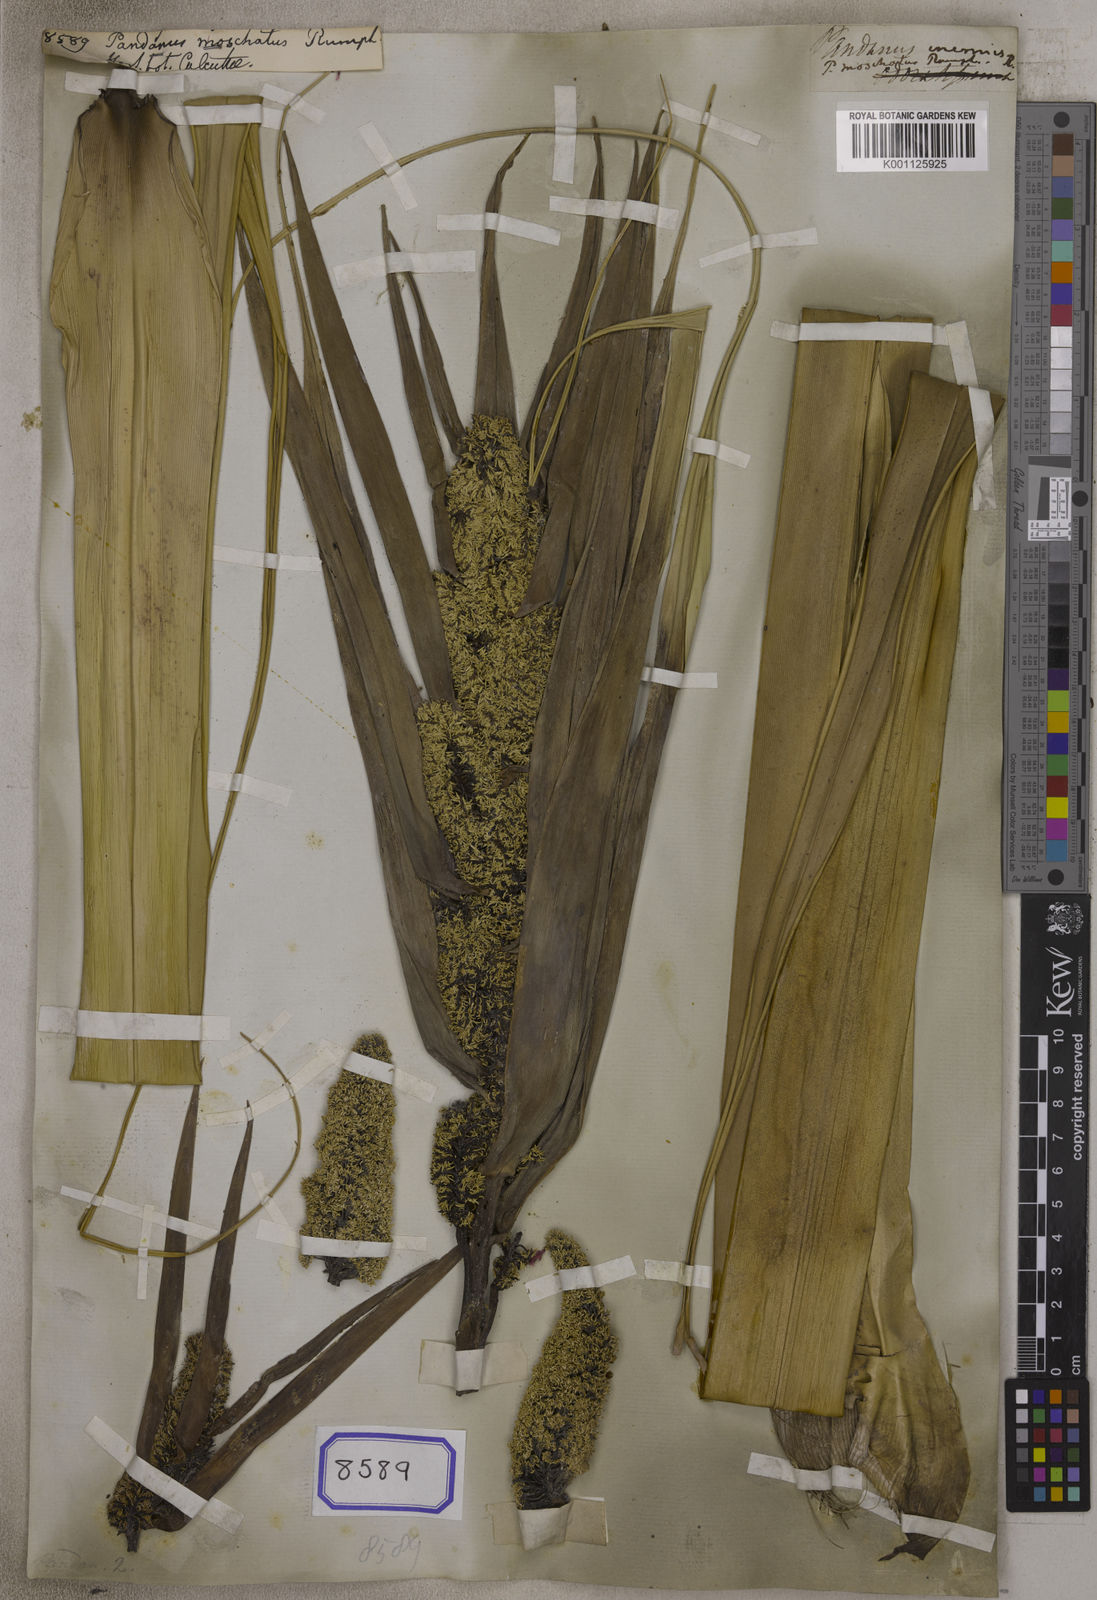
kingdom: Plantae
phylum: Tracheophyta
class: Liliopsida
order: Pandanales
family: Pandanaceae
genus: Pandanus
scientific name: Pandanus tectorius
